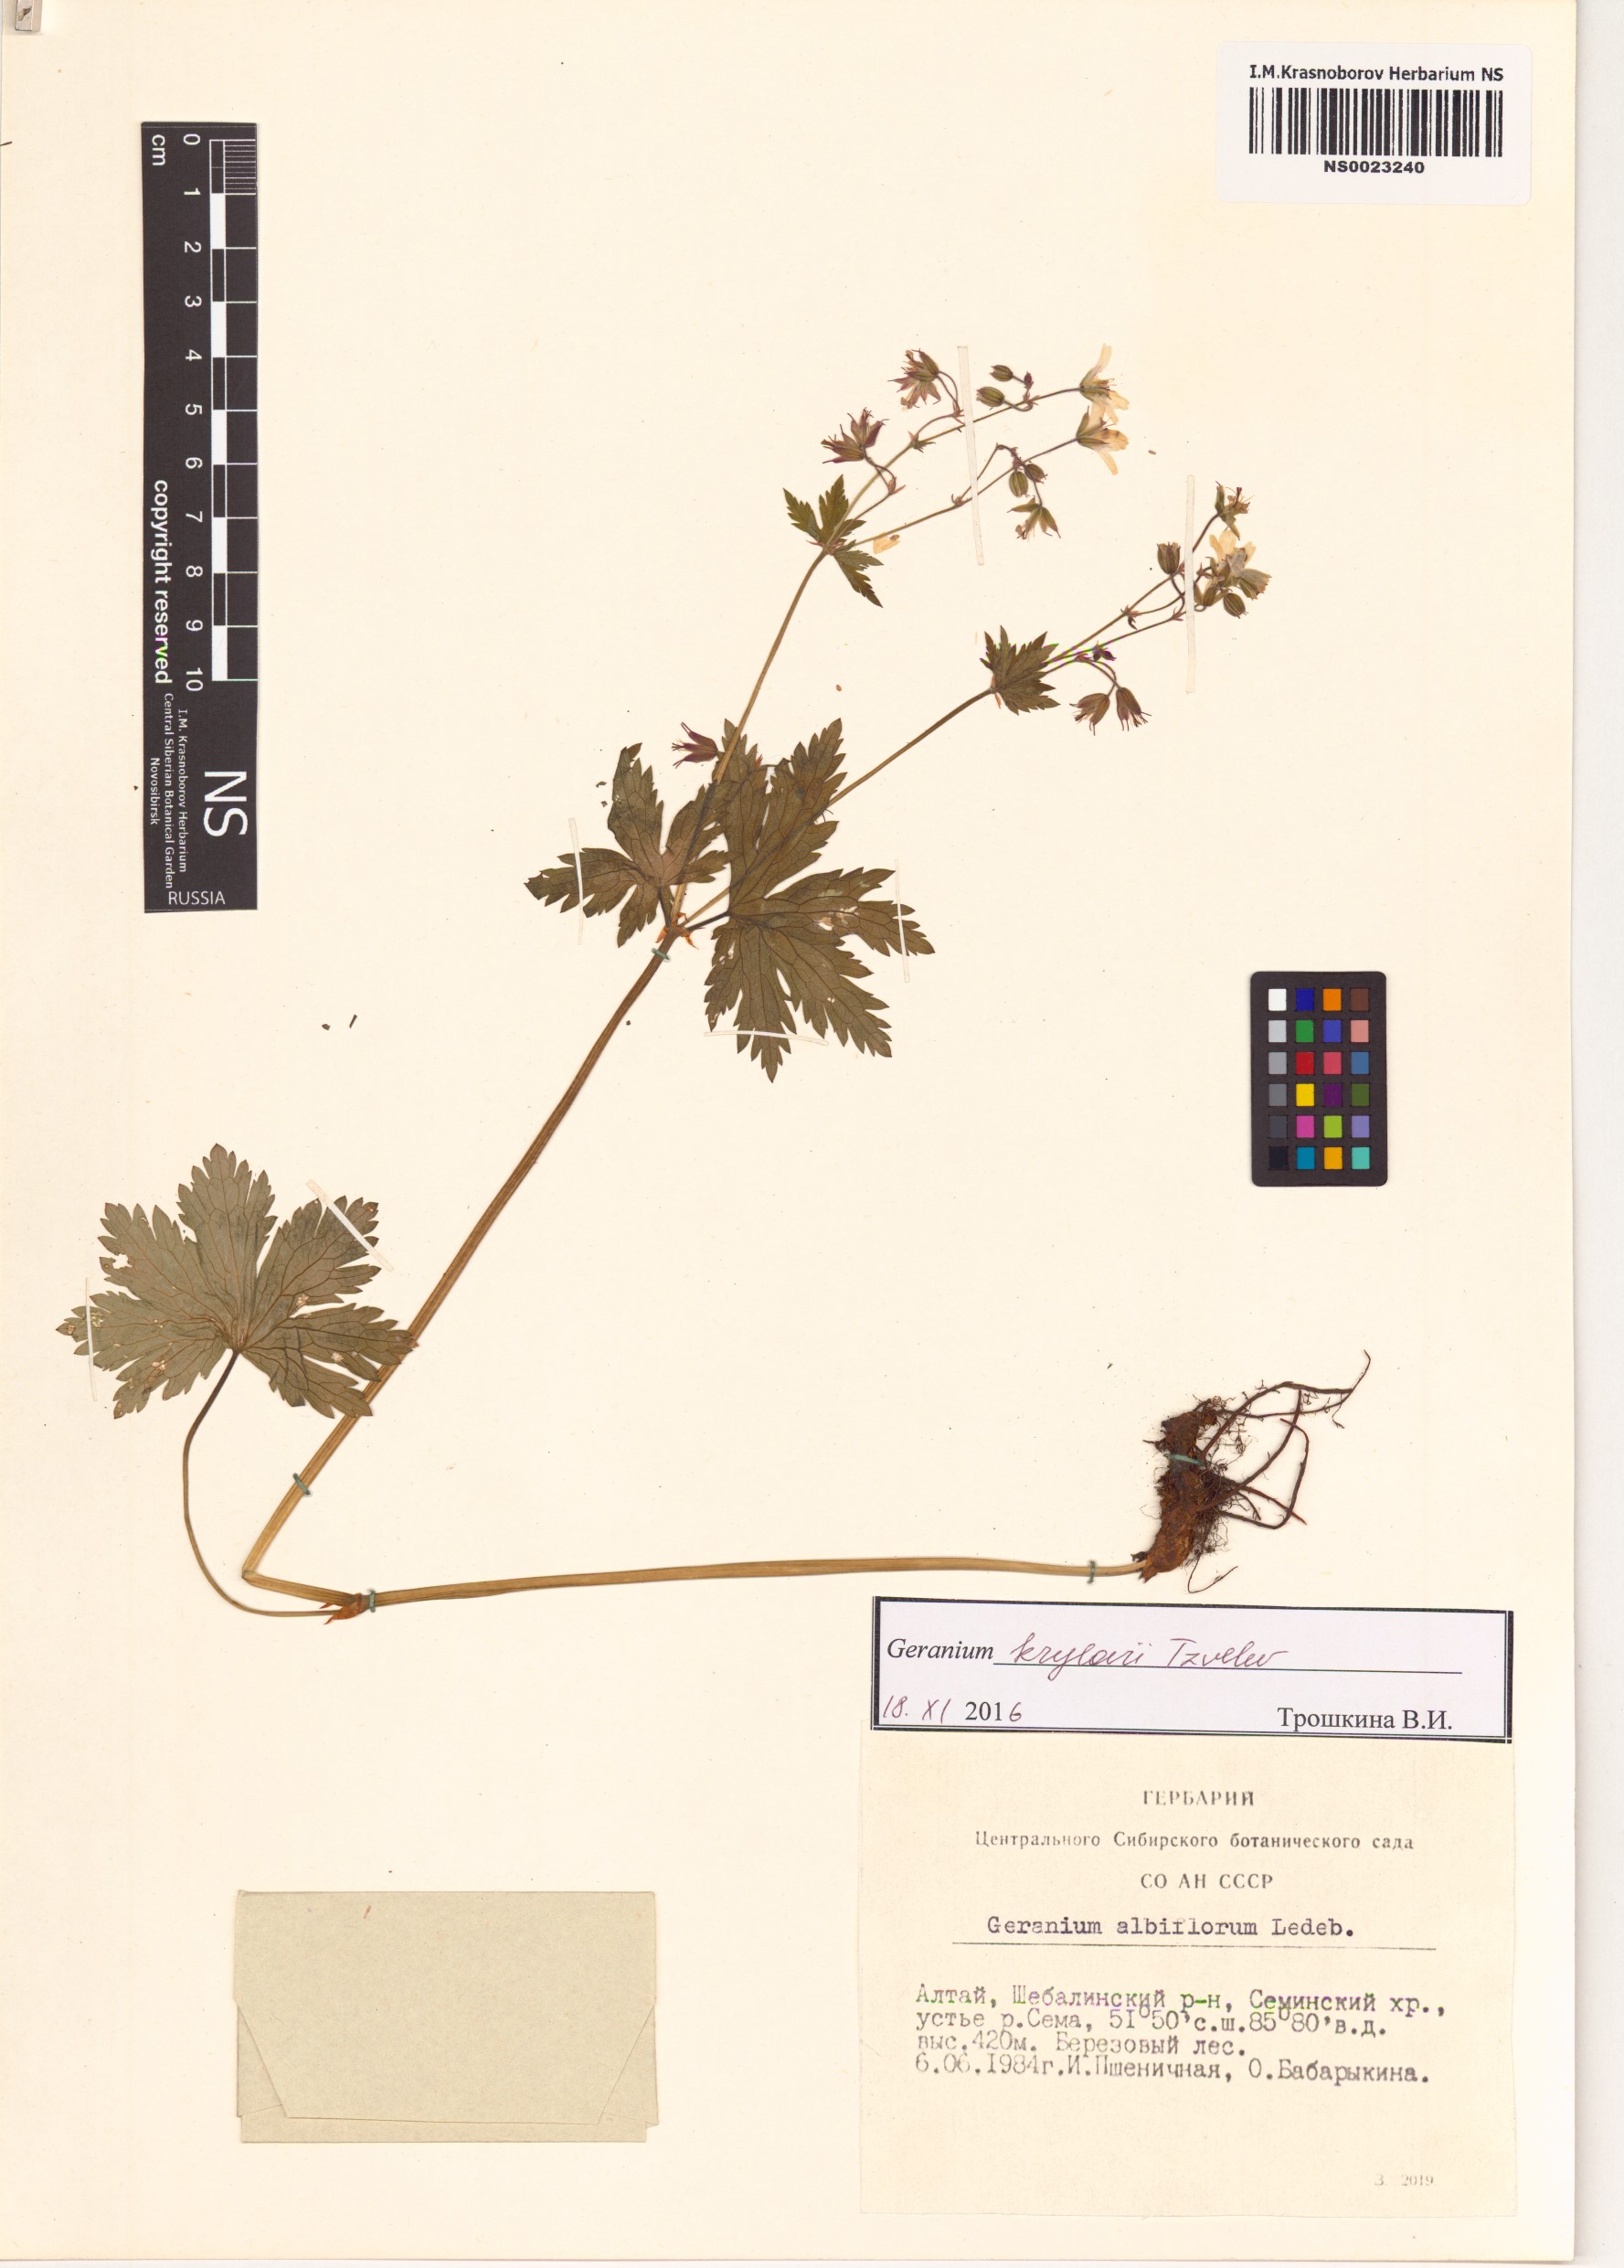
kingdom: Plantae
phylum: Tracheophyta
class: Magnoliopsida
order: Geraniales
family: Geraniaceae
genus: Geranium
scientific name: Geranium sylvaticum
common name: Wood crane's-bill
